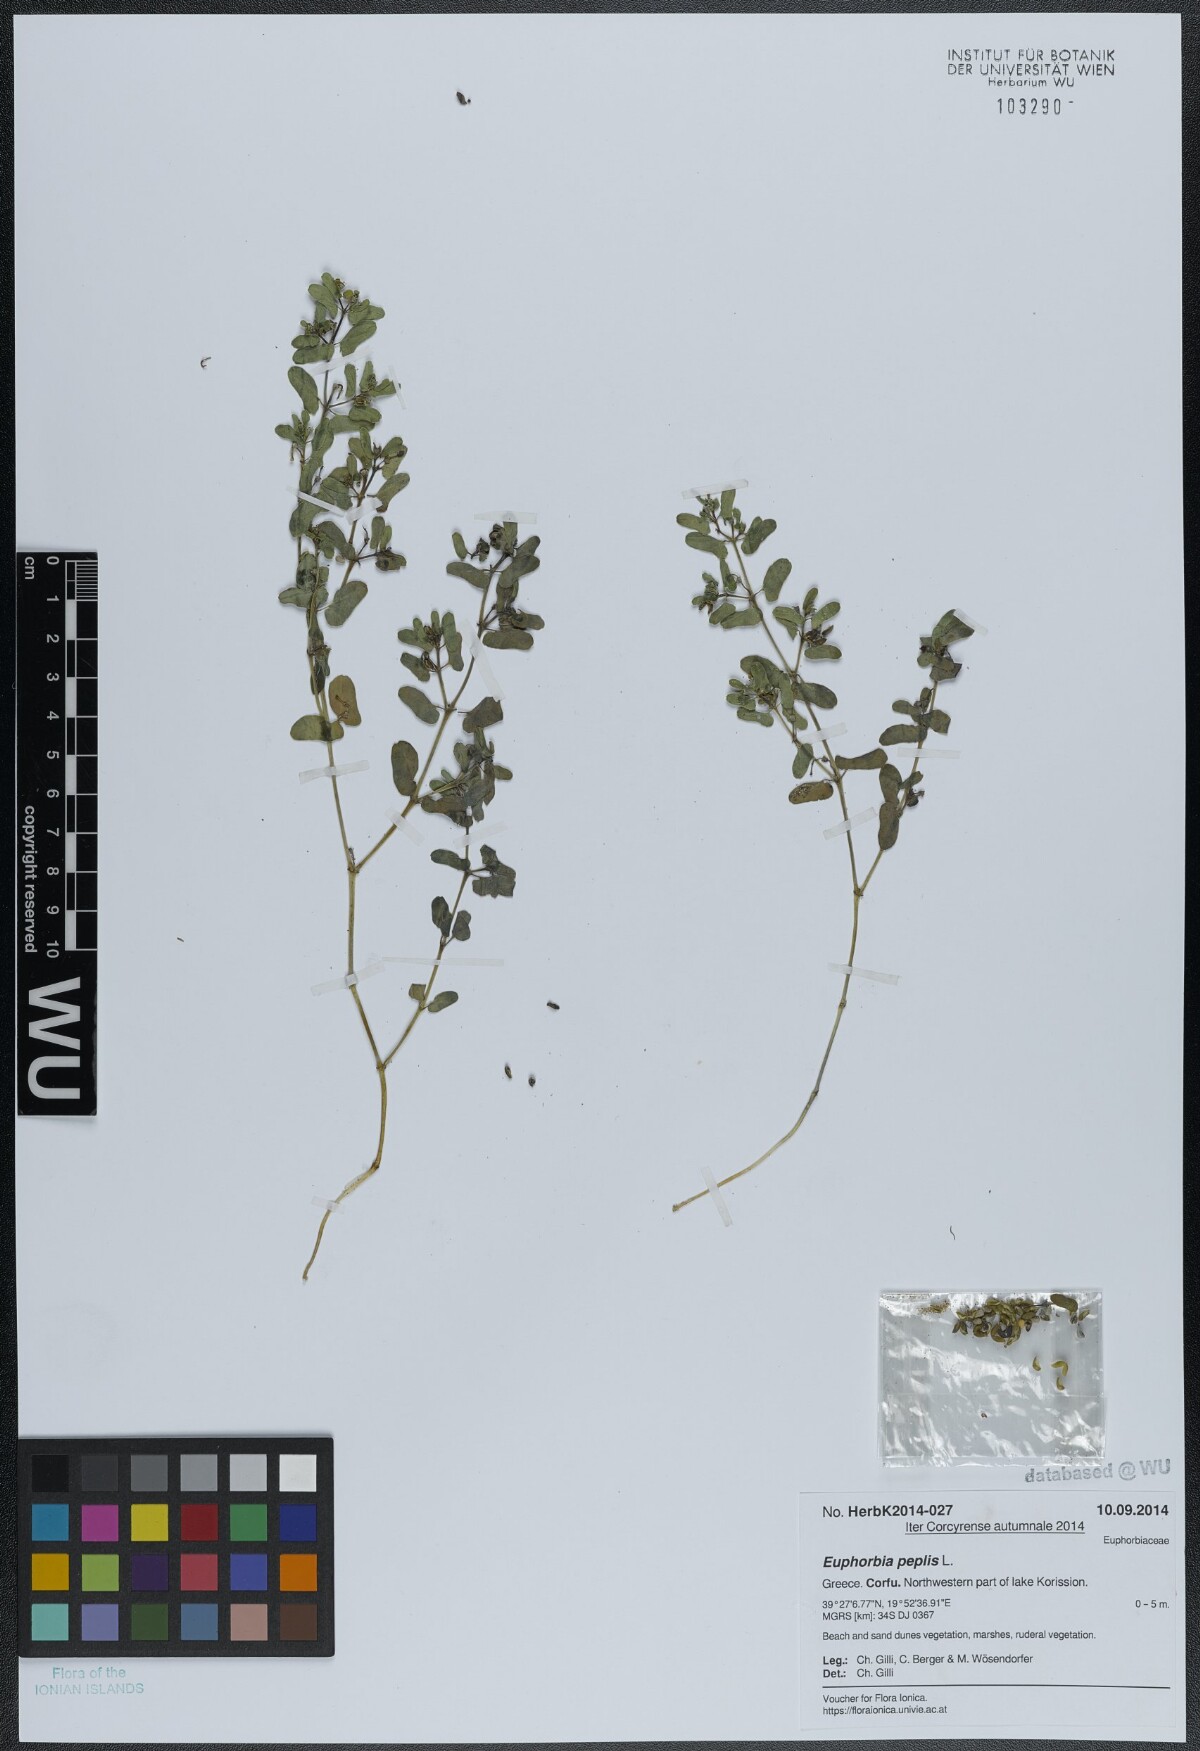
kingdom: Plantae
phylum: Tracheophyta
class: Magnoliopsida
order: Malpighiales
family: Euphorbiaceae
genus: Euphorbia
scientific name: Euphorbia peplis
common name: Purple spurge
